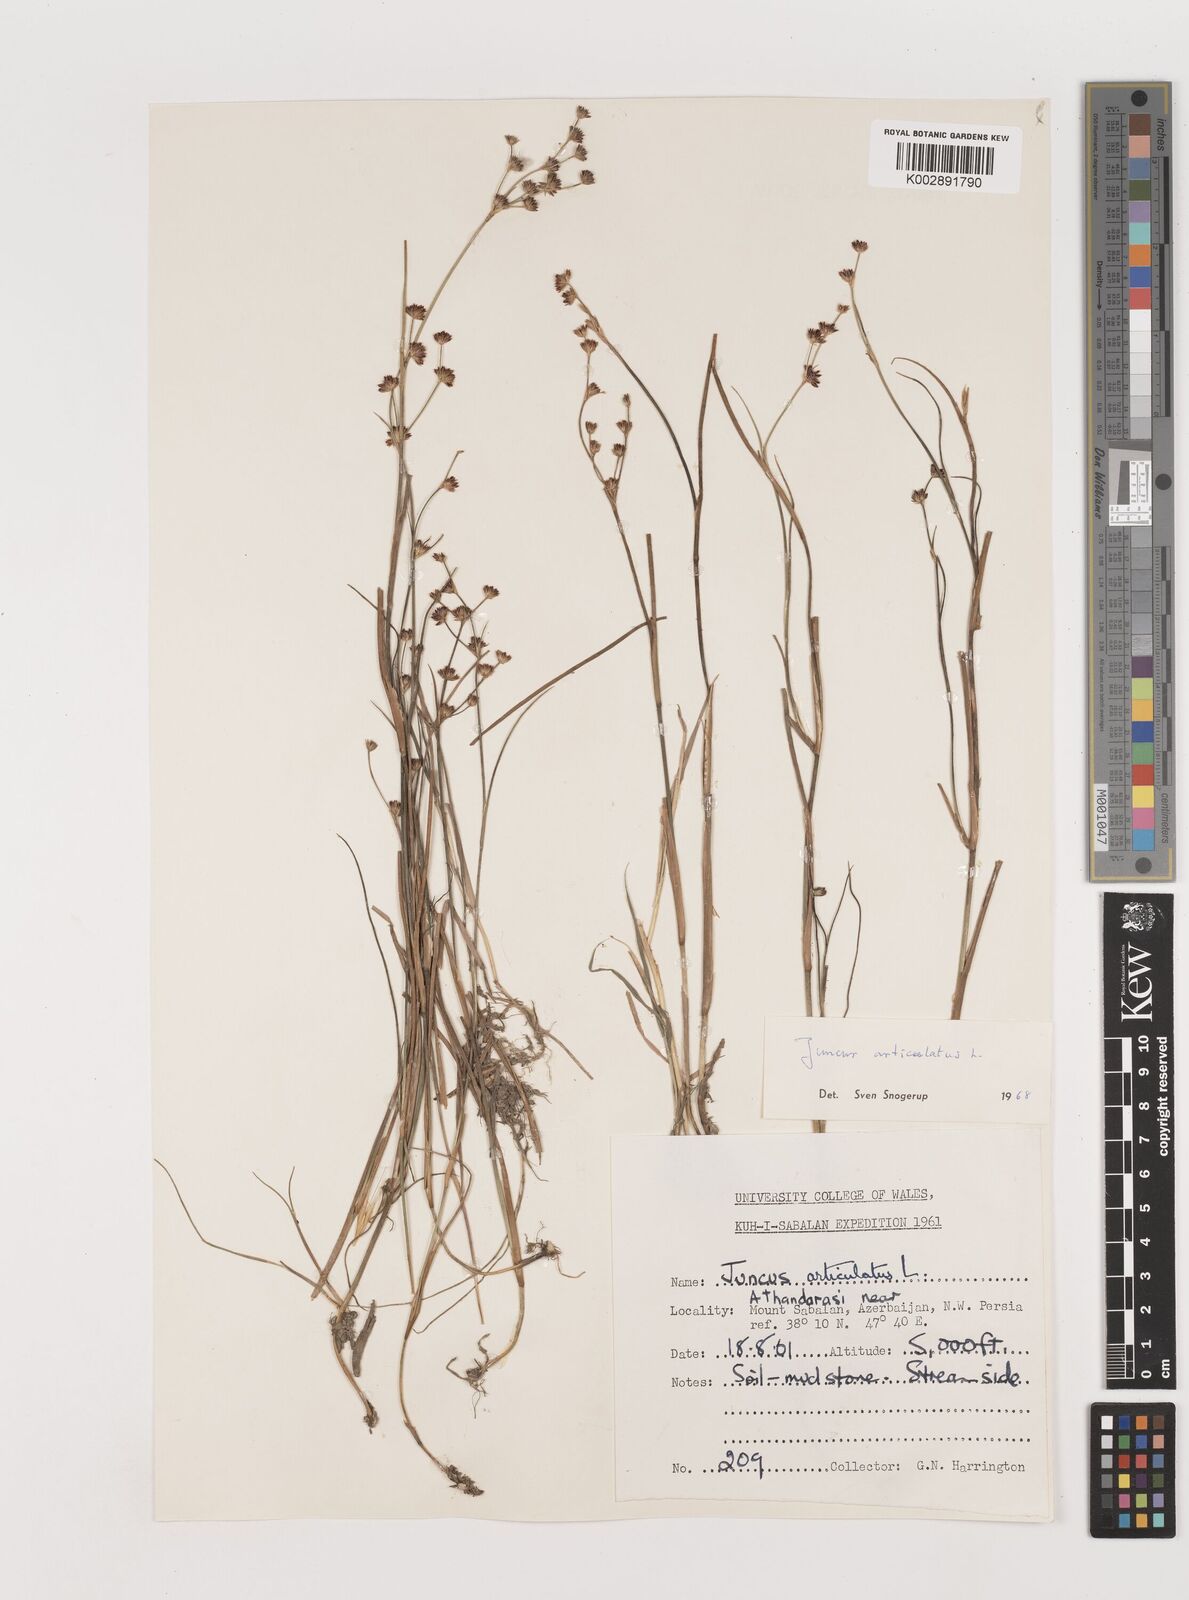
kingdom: Plantae
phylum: Tracheophyta
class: Liliopsida
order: Poales
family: Juncaceae
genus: Juncus
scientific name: Juncus articulatus
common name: Jointed rush
